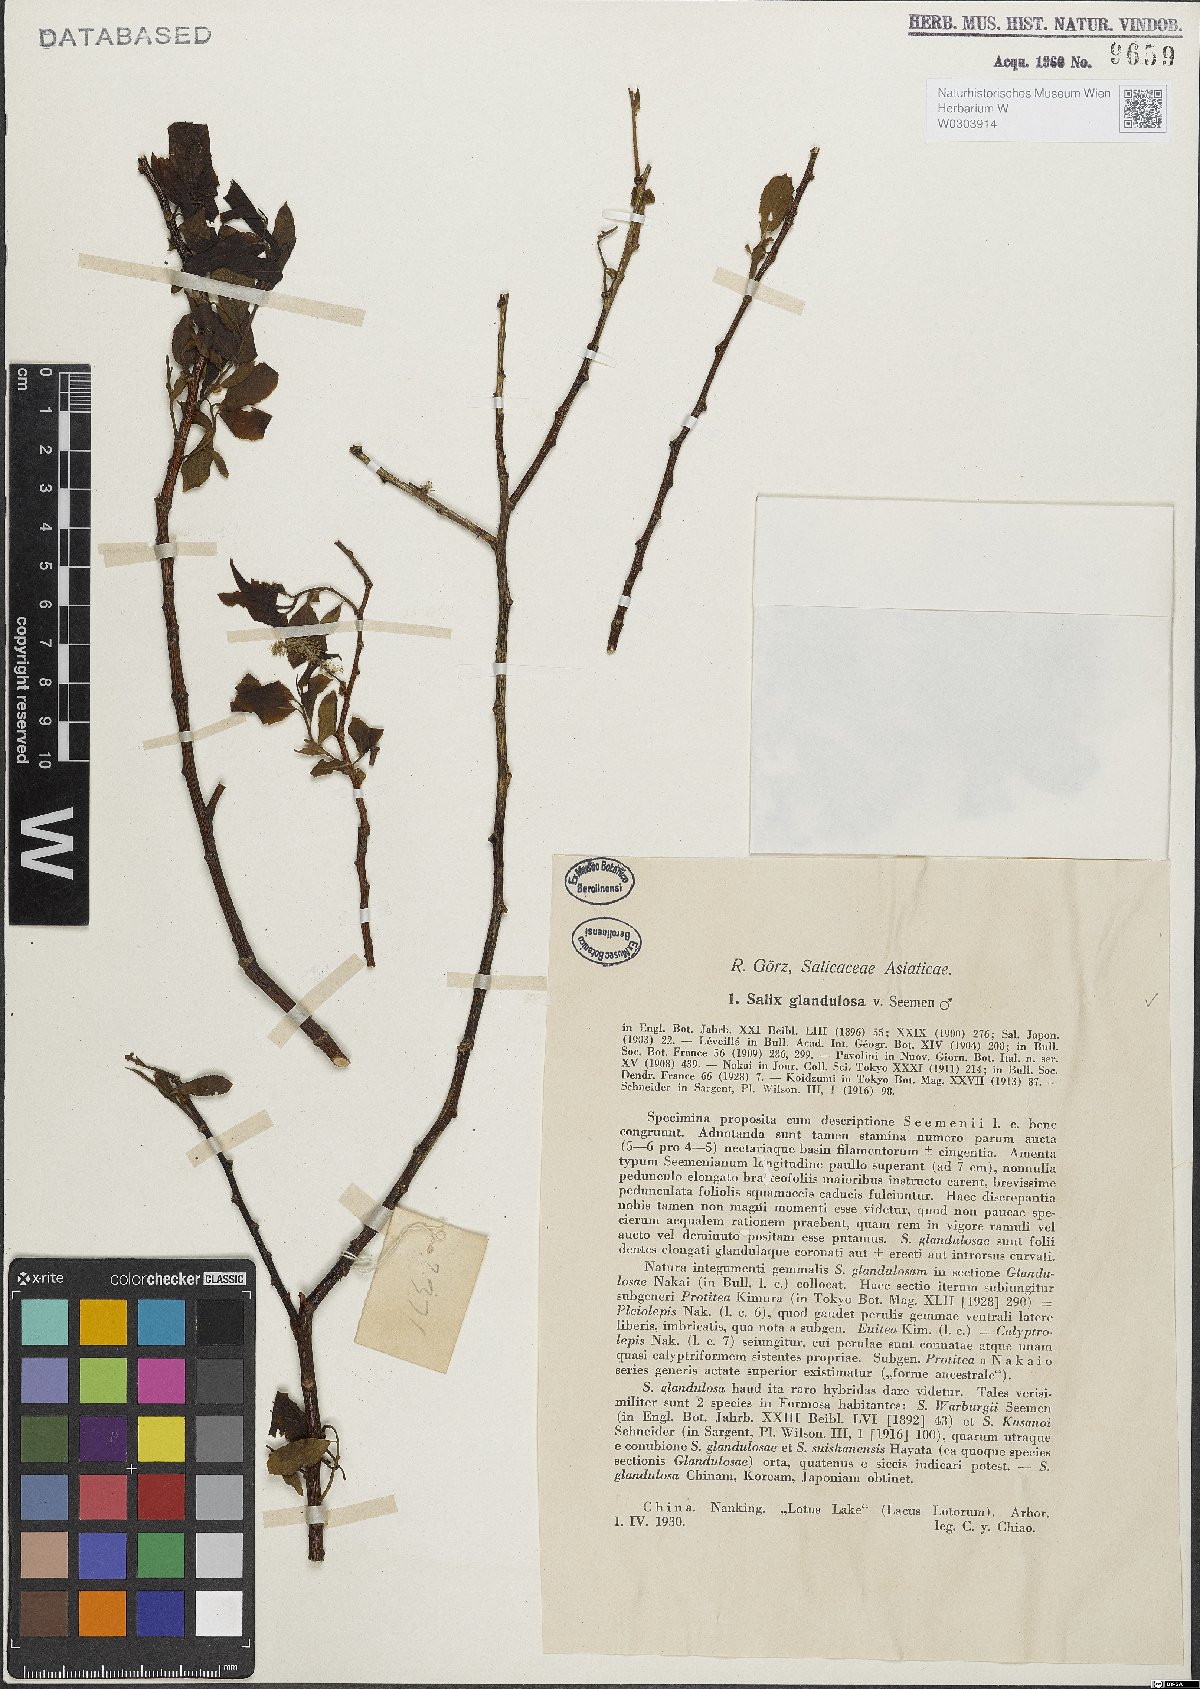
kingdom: Plantae
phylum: Tracheophyta
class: Magnoliopsida
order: Malpighiales
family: Salicaceae
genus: Salix
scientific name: Salix chaenomeloides
